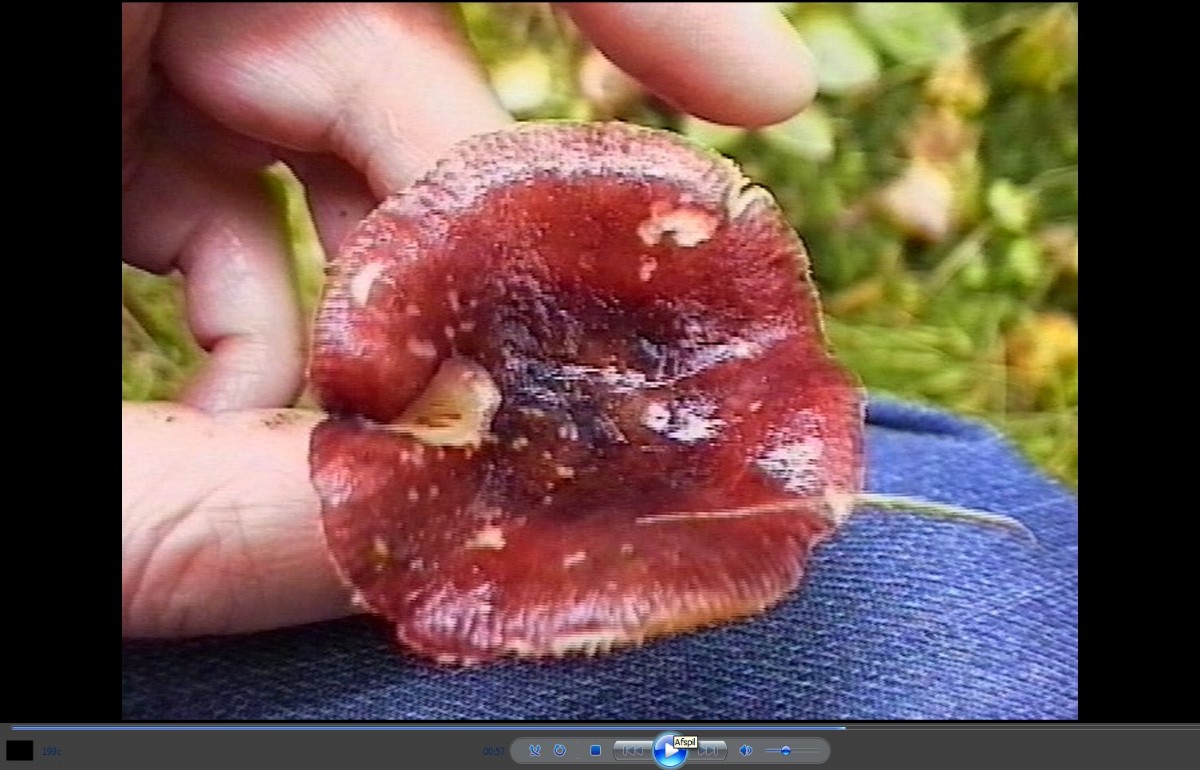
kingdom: Fungi
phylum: Basidiomycota
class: Agaricomycetes
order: Russulales
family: Russulaceae
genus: Russula
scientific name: Russula queletii
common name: Quélets skørhat
